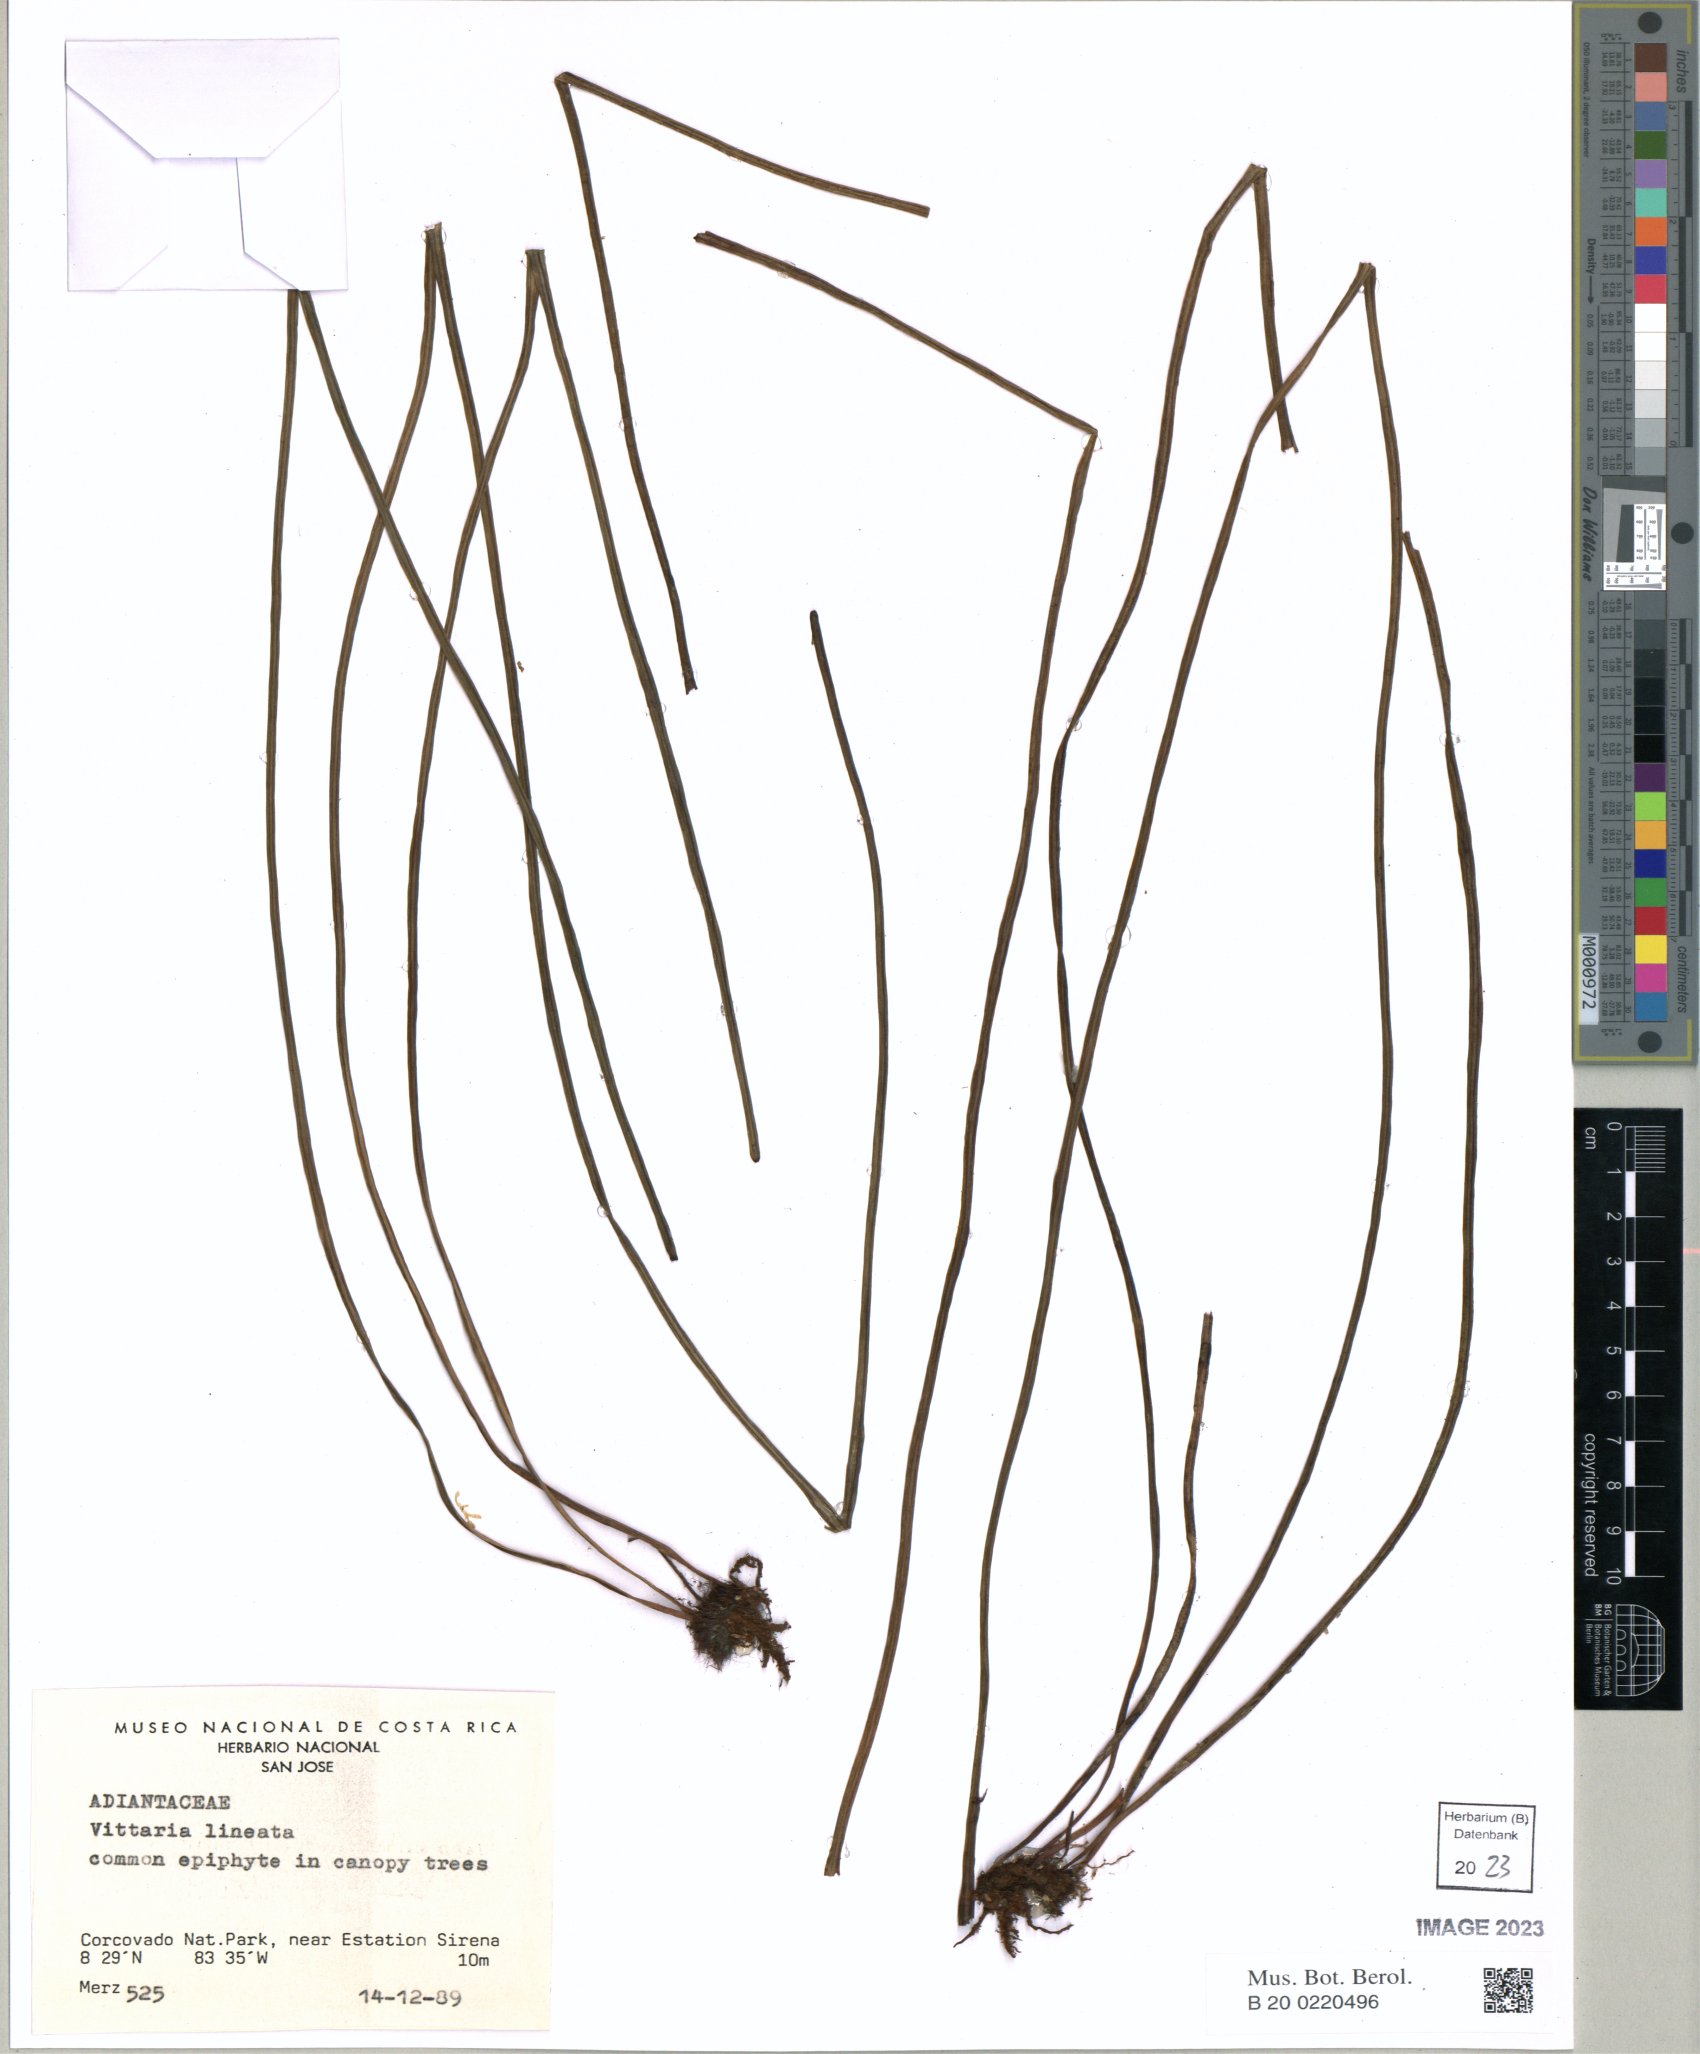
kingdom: Plantae
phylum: Tracheophyta
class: Polypodiopsida
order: Polypodiales
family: Pteridaceae
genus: Vittaria
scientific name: Vittaria lineata
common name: Shoestring fern
